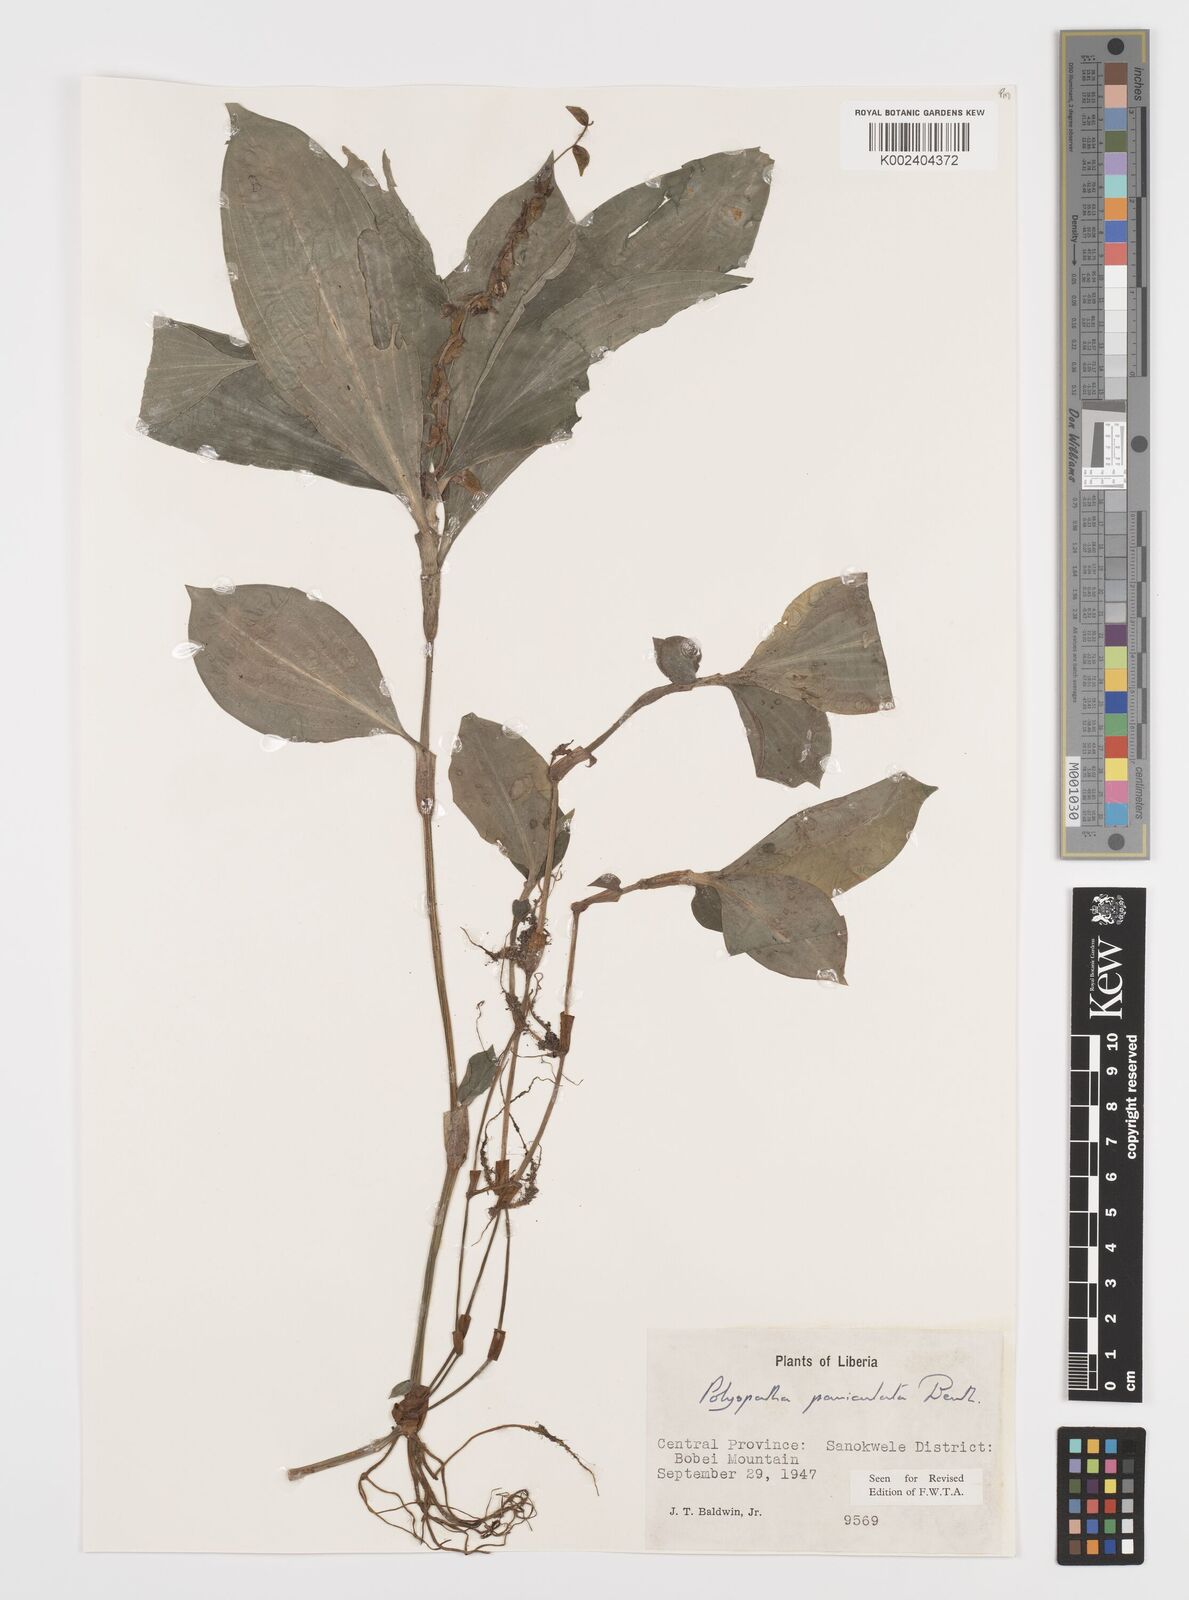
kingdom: Plantae
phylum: Tracheophyta
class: Liliopsida
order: Commelinales
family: Commelinaceae
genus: Polyspatha
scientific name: Polyspatha paniculata
